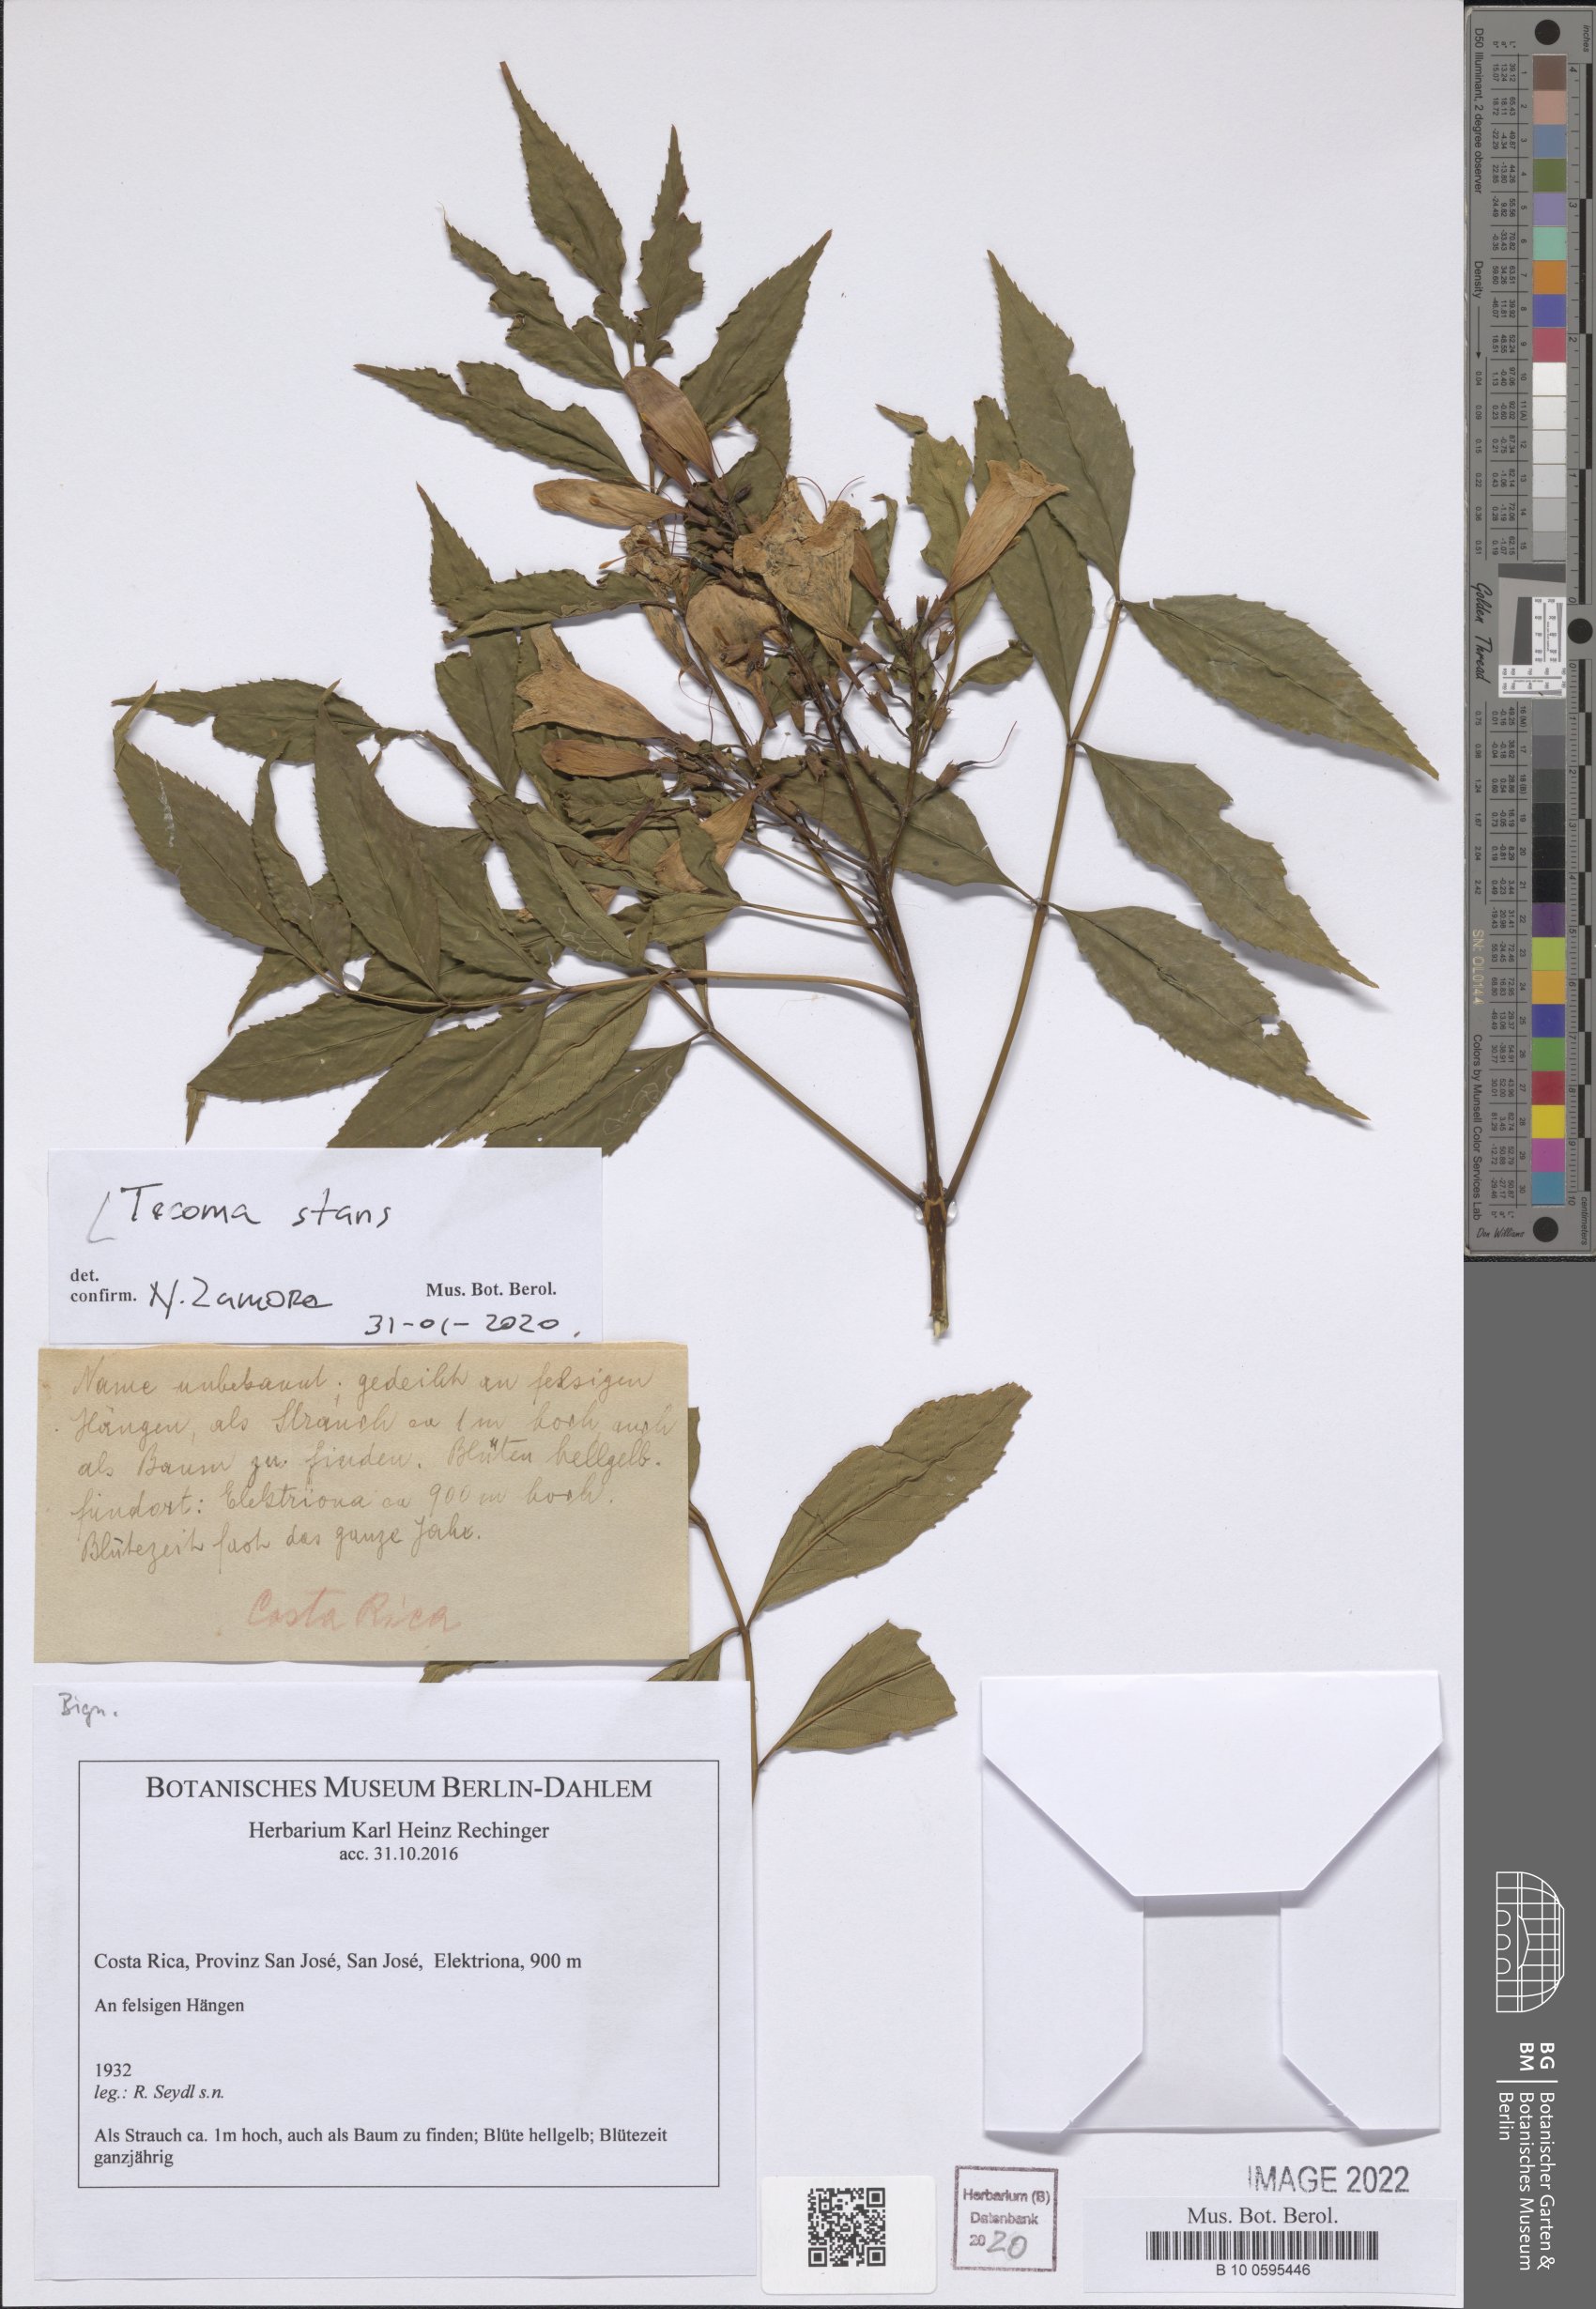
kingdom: Plantae
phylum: Tracheophyta
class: Magnoliopsida
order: Lamiales
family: Bignoniaceae
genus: Tecoma
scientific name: Tecoma stans
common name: Yellow trumpetbush
